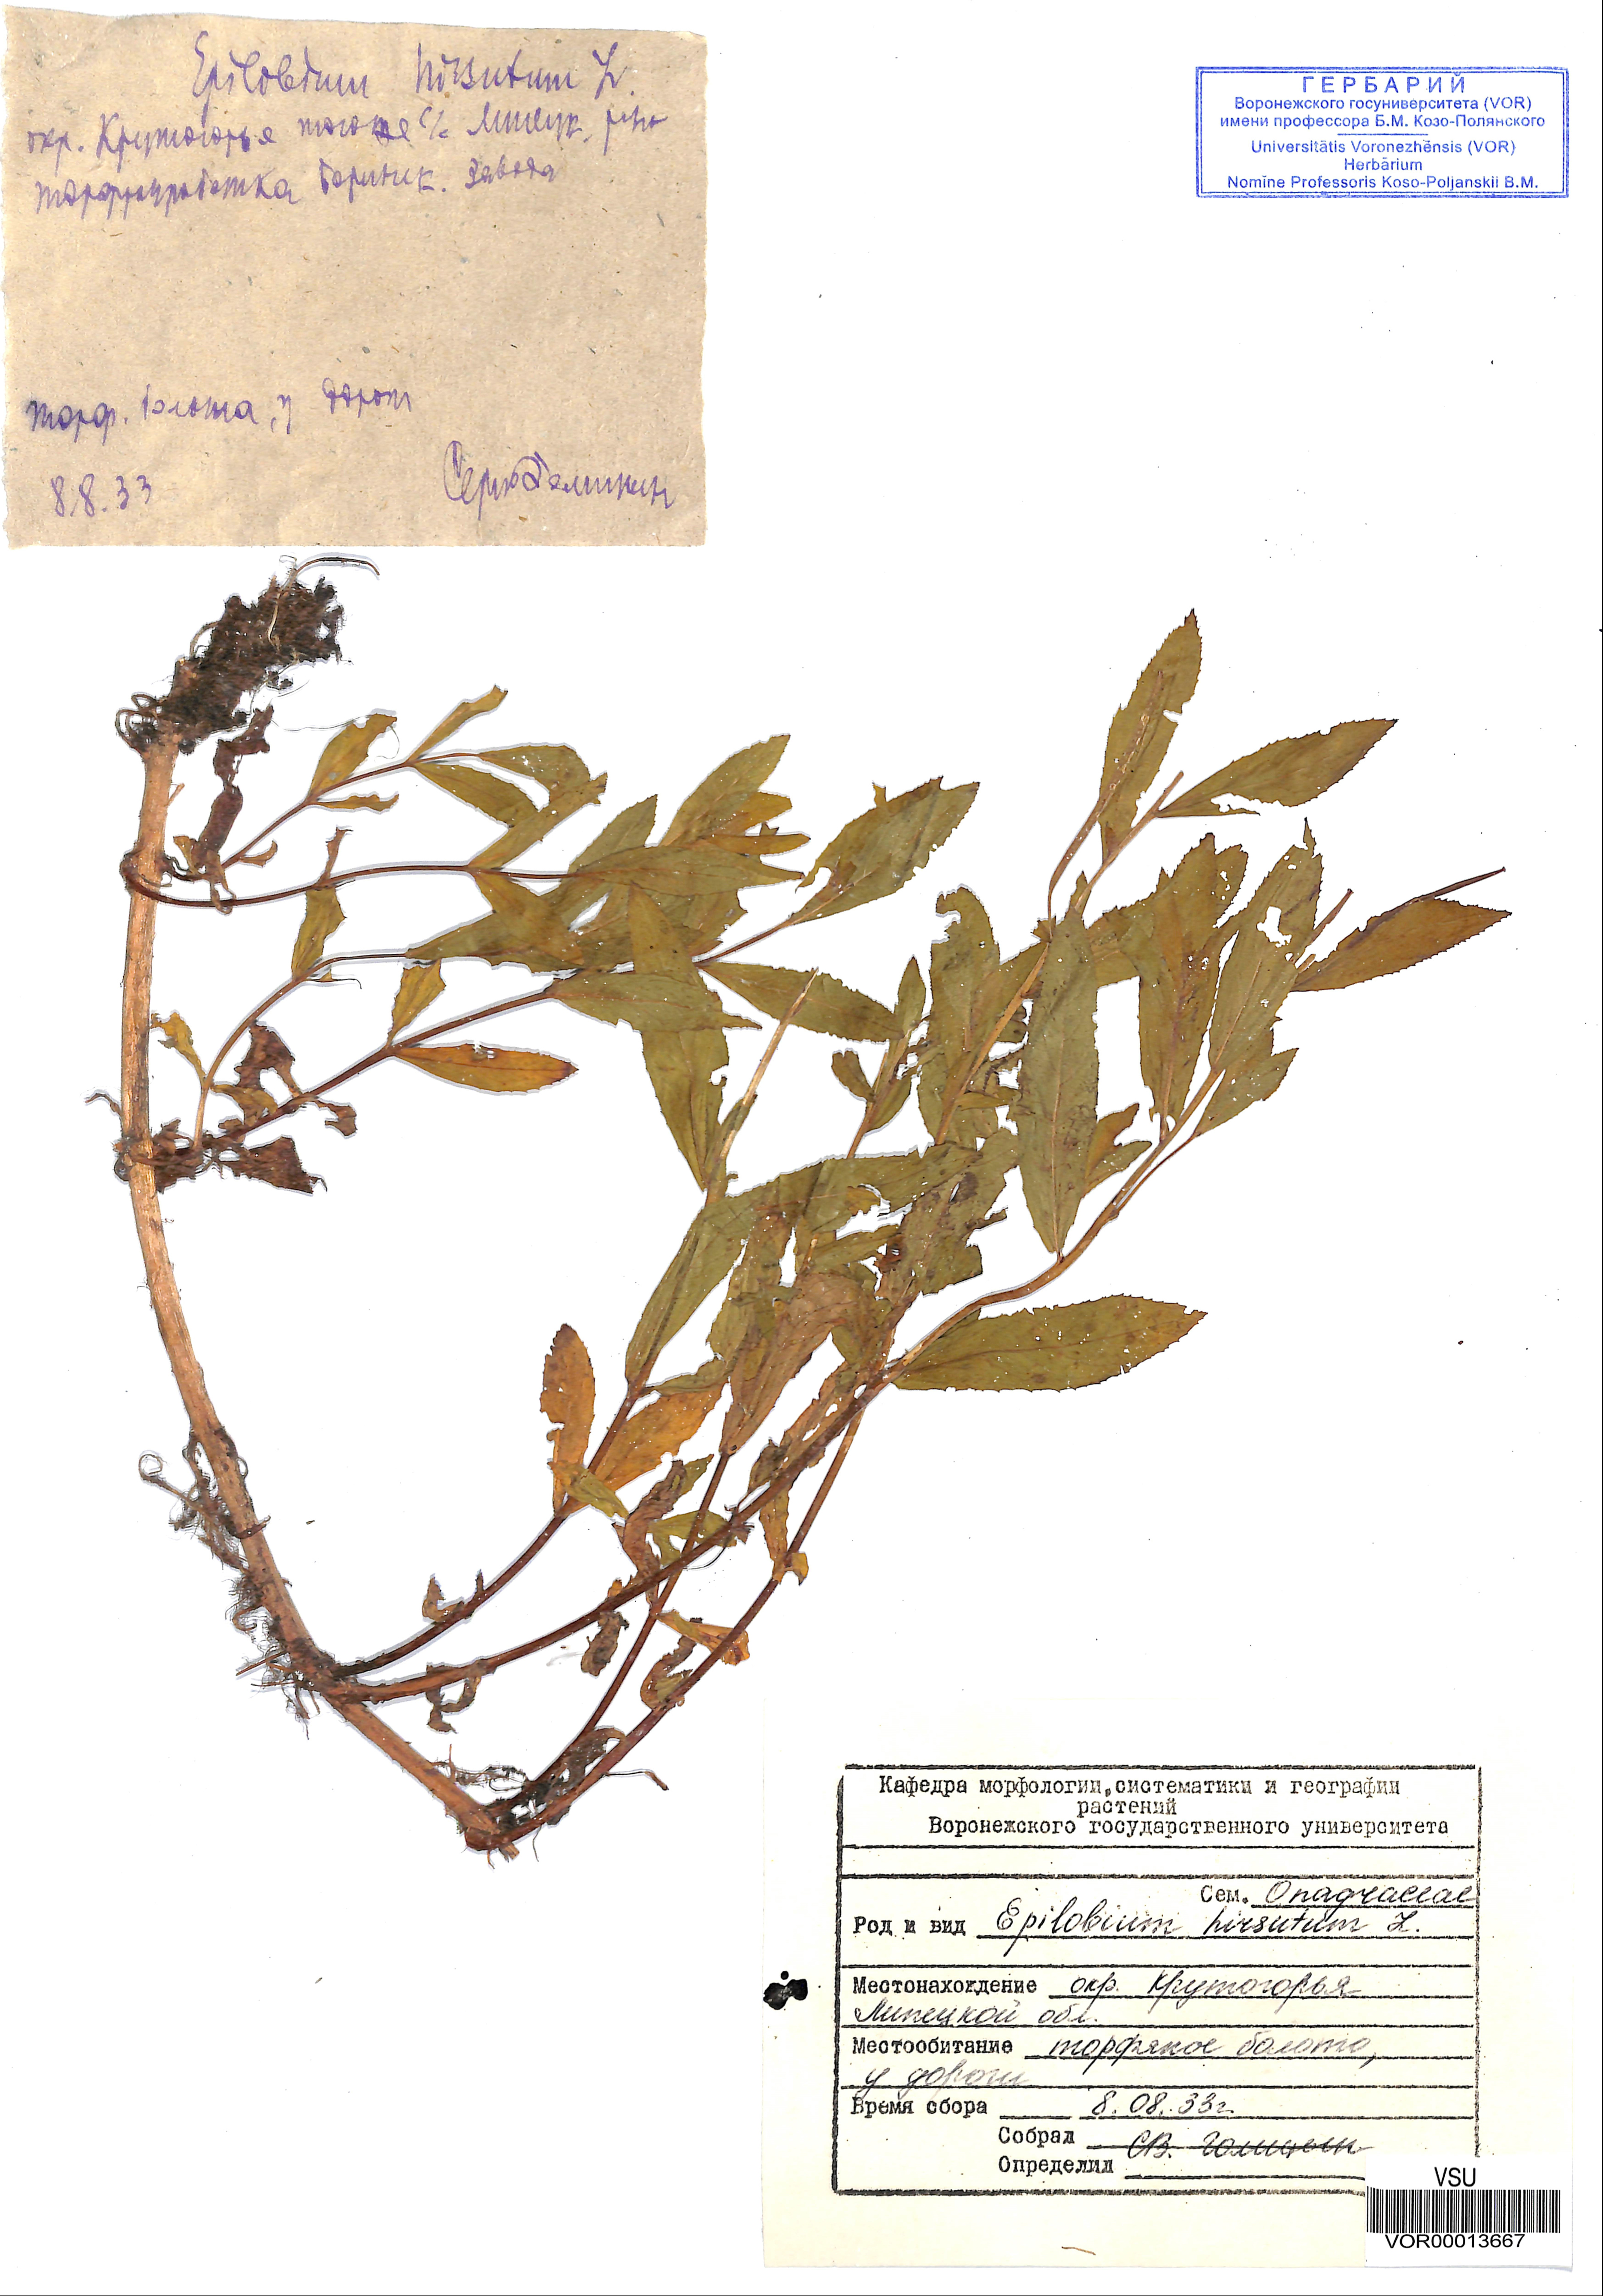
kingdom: Plantae
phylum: Tracheophyta
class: Magnoliopsida
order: Myrtales
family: Onagraceae
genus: Epilobium
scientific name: Epilobium hirsutum
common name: Great willowherb
